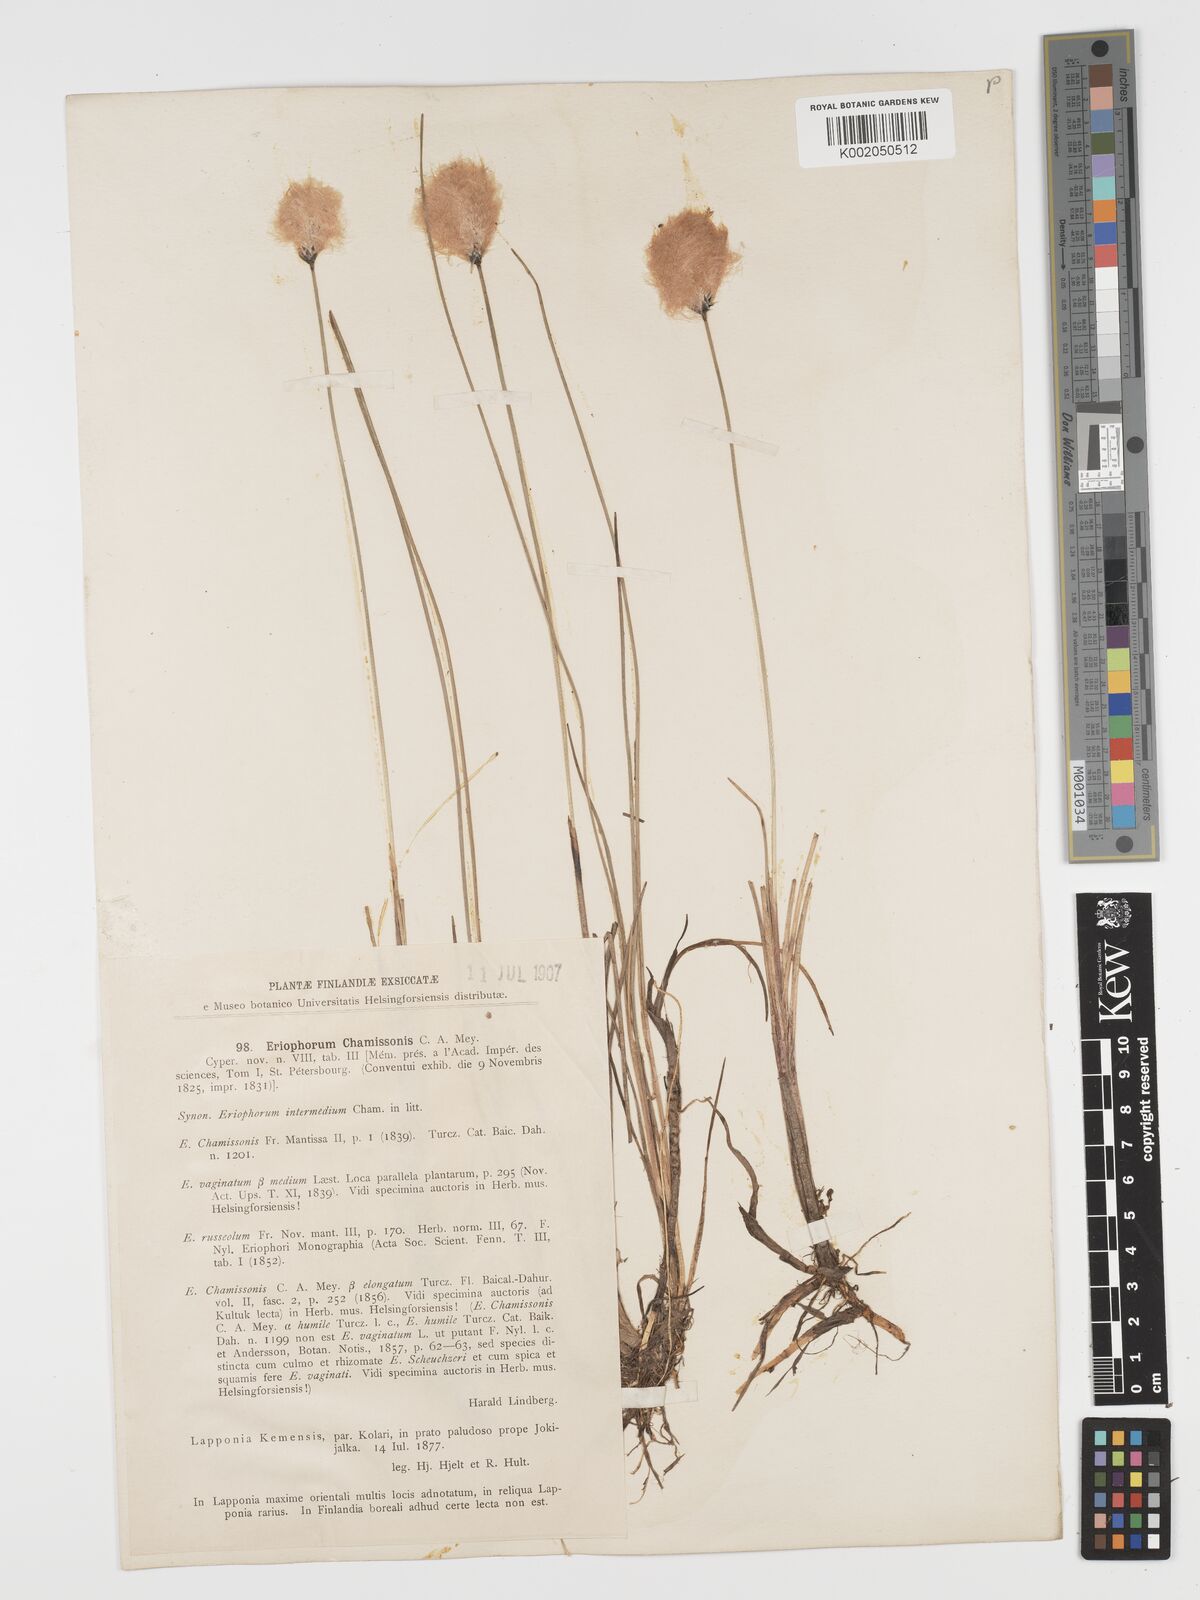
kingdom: Plantae
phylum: Tracheophyta
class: Liliopsida
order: Poales
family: Cyperaceae
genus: Eriophorum
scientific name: Eriophorum chamissonis
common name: Chamisso's cottongrass
